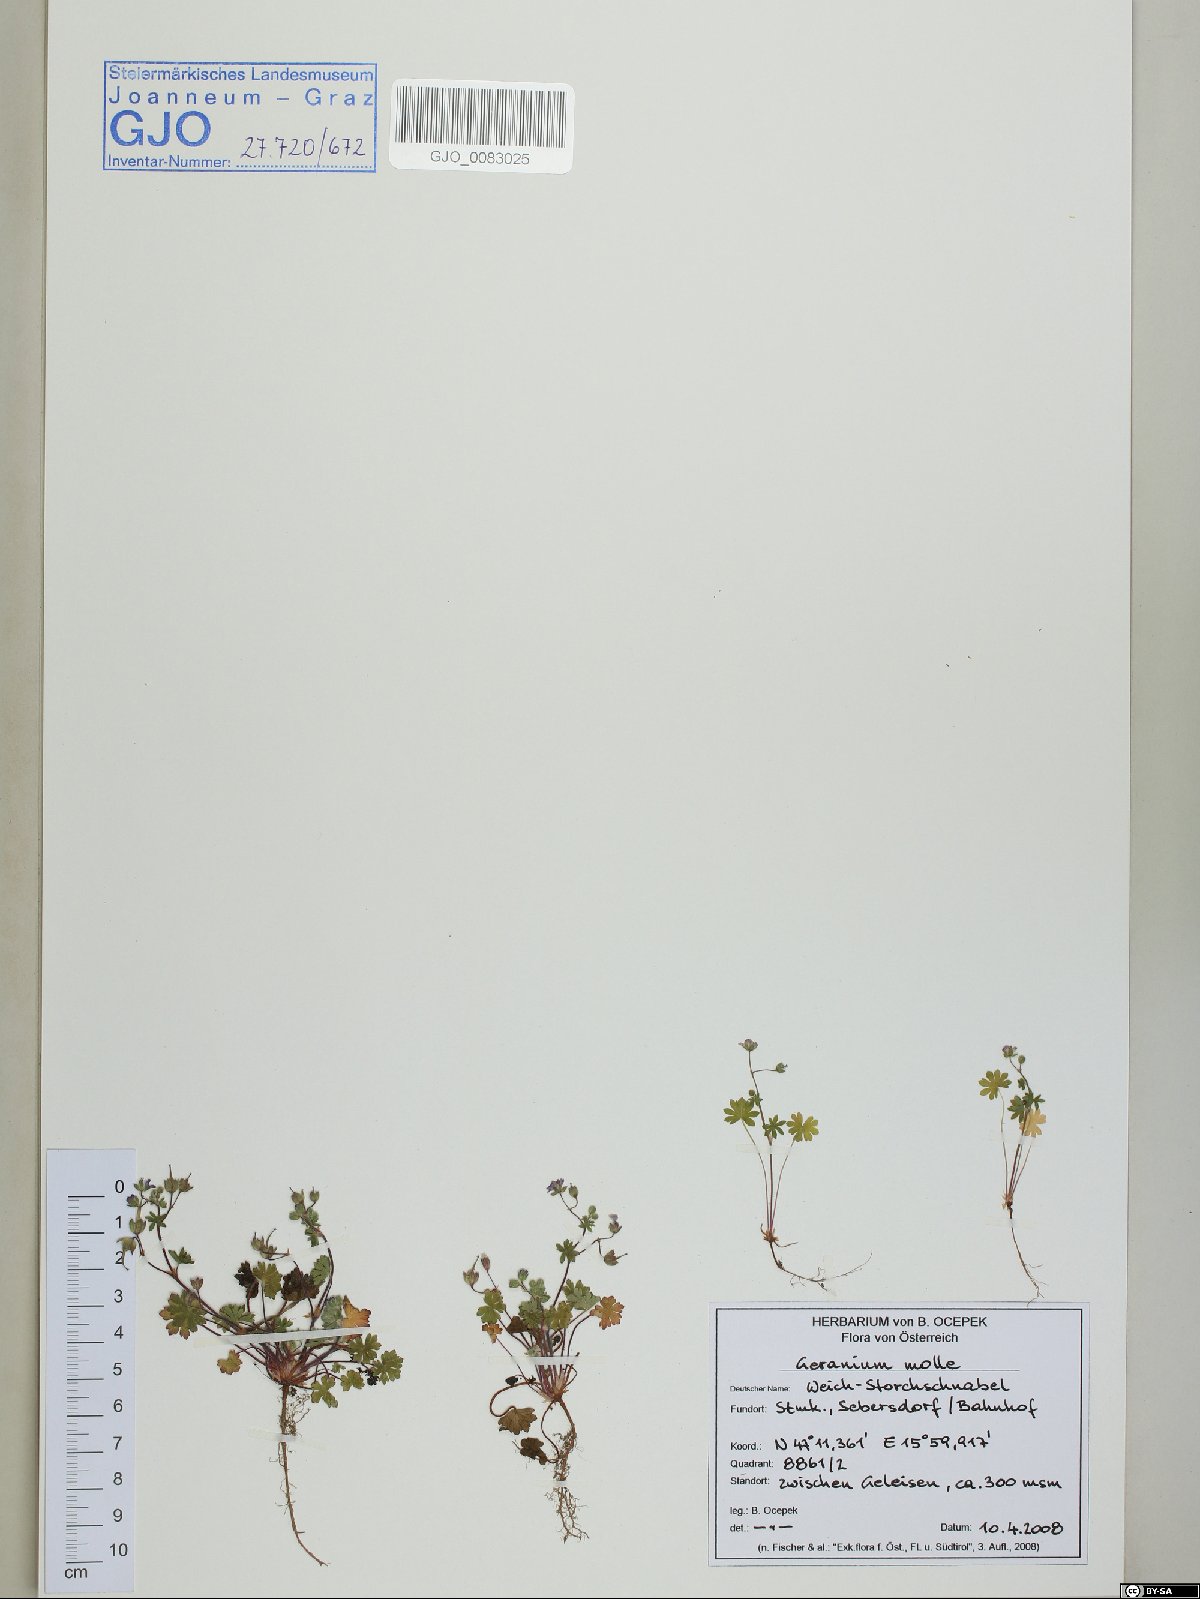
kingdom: Plantae
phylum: Tracheophyta
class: Magnoliopsida
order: Geraniales
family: Geraniaceae
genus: Geranium
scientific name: Geranium molle
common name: Dove's-foot crane's-bill
